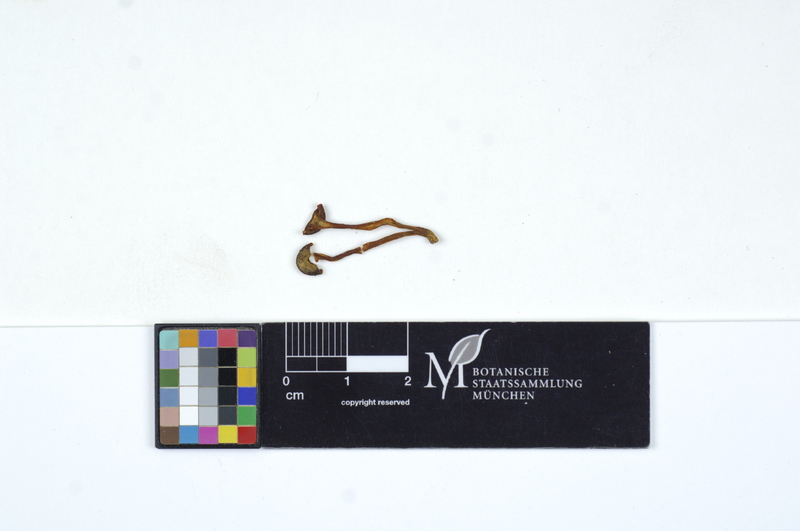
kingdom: Fungi
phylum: Basidiomycota
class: Agaricomycetes
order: Agaricales
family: Hygrophoraceae
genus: Hygrocybe
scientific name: Hygrocybe helobia
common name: Garlic waxcap
